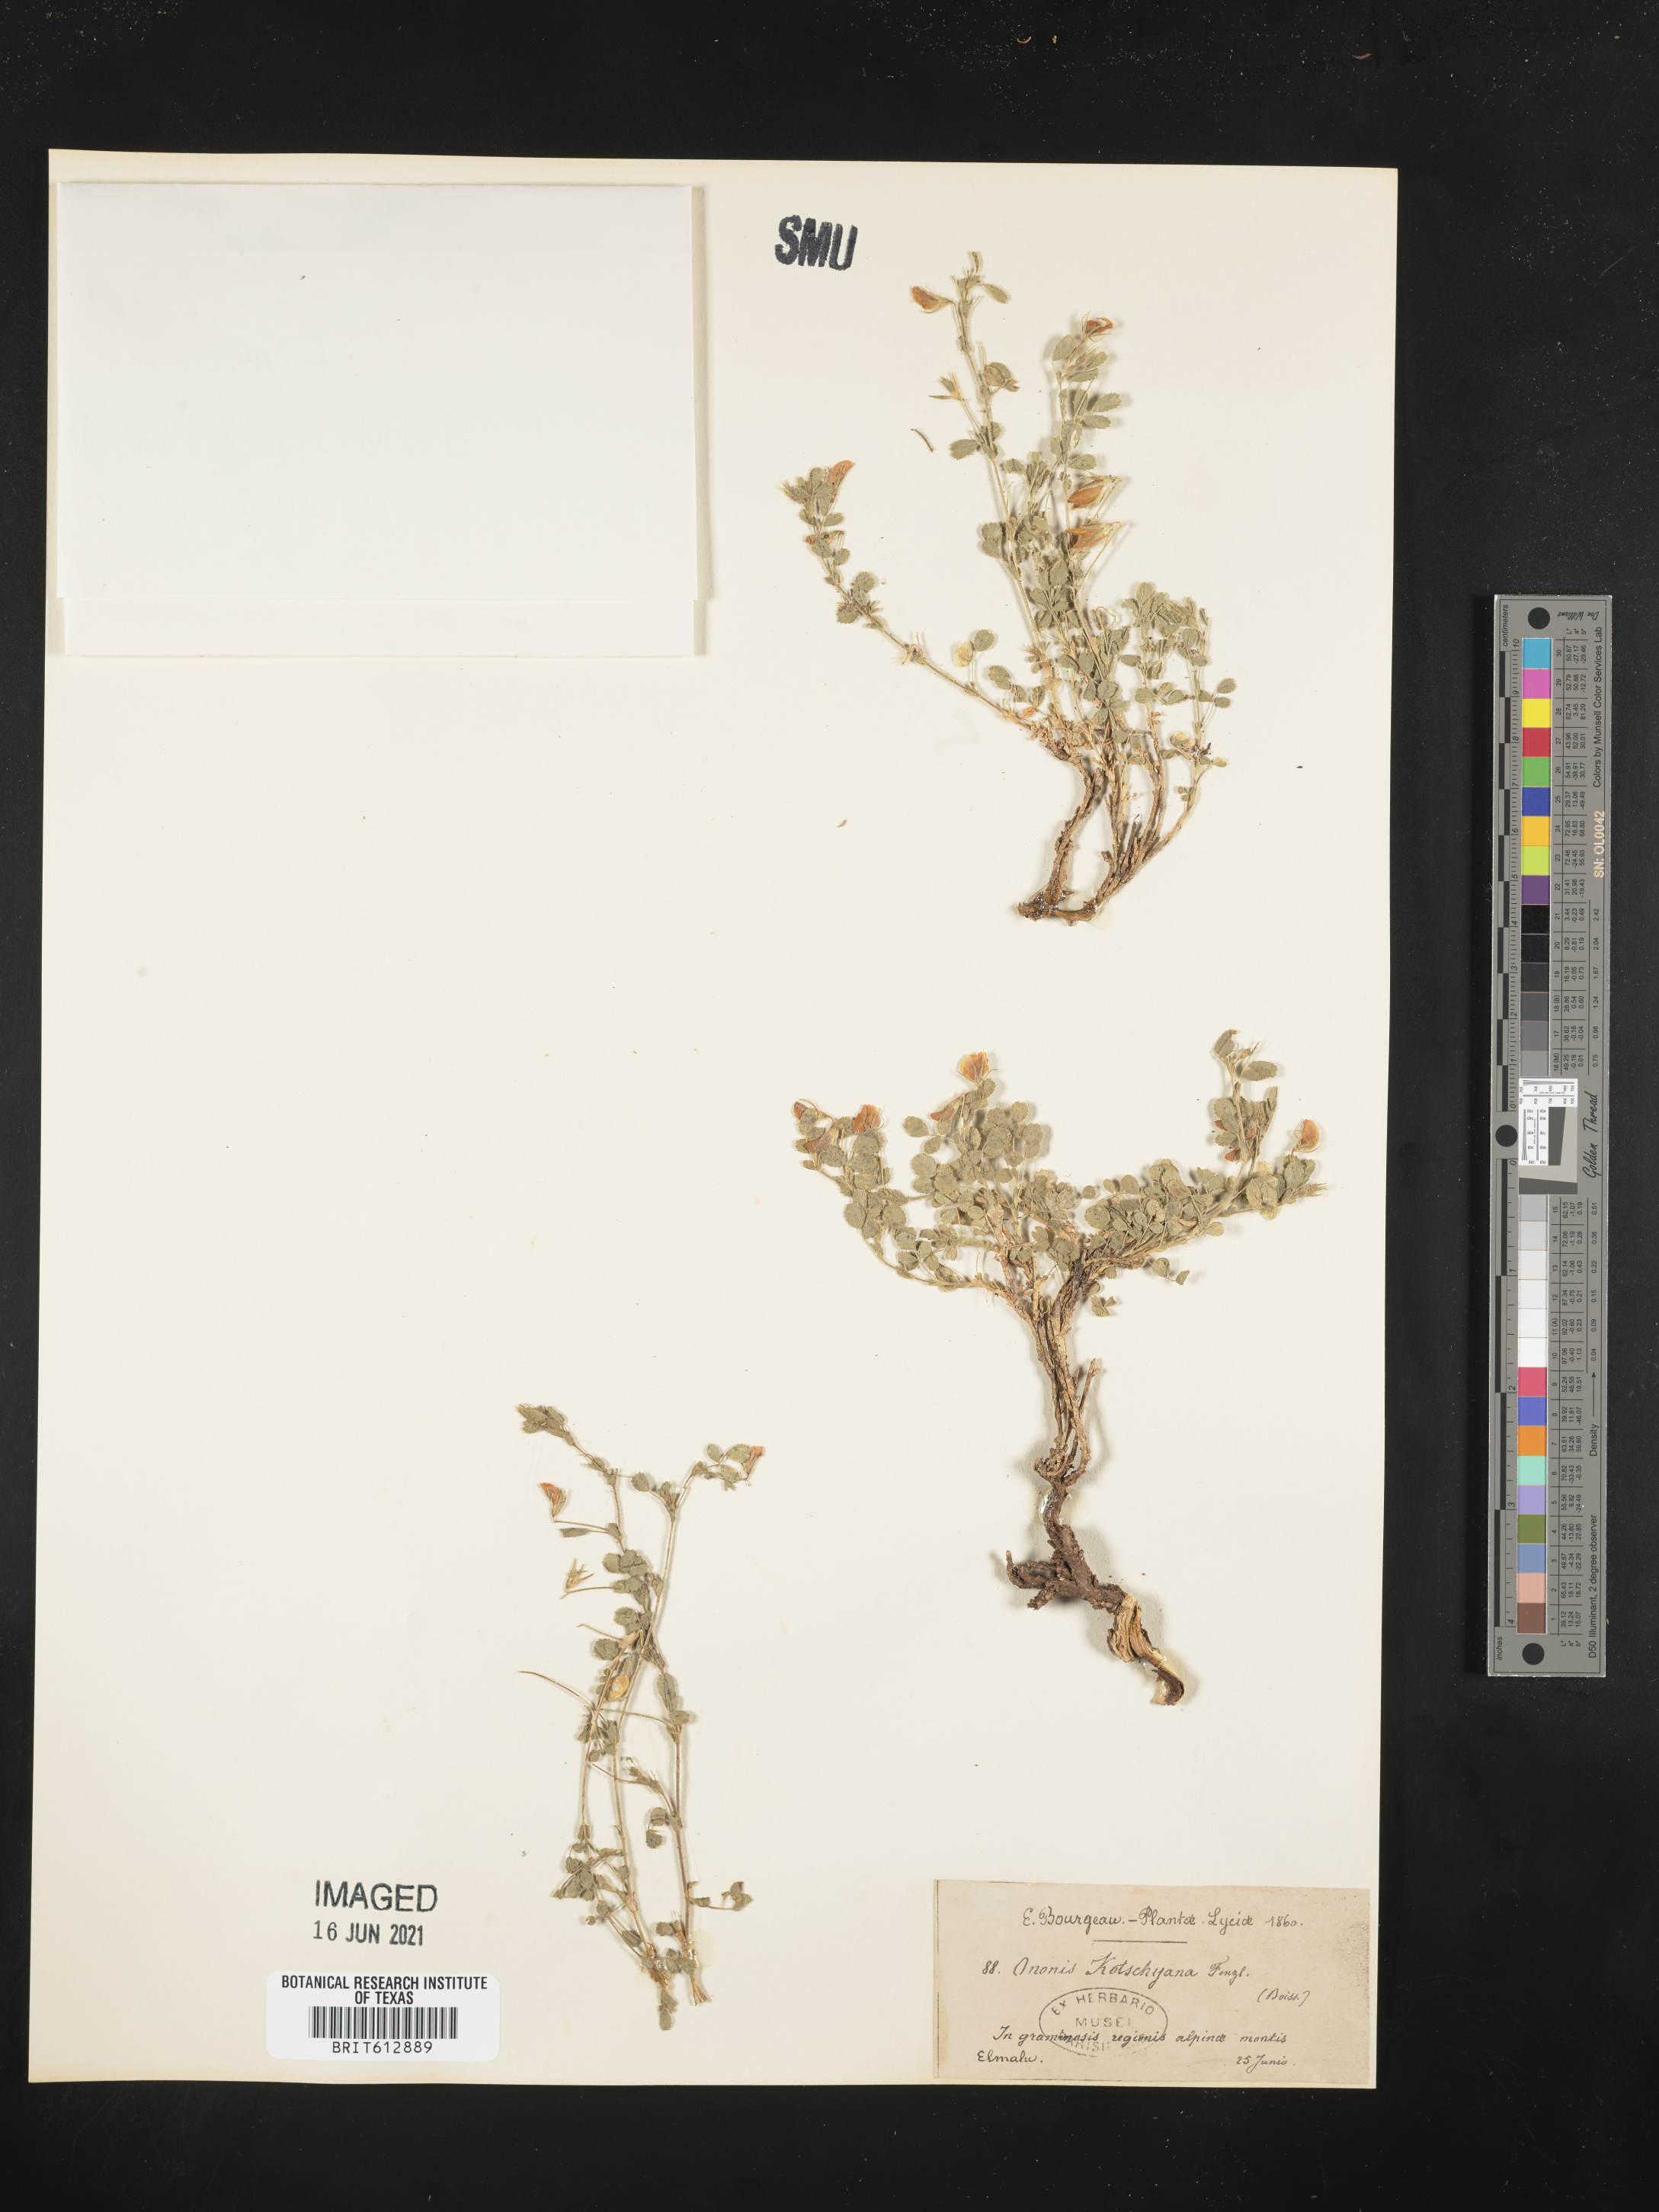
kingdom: Plantae
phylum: Tracheophyta
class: Magnoliopsida
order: Fabales
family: Fabaceae
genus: Ononis
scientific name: Ononis adenotricha
